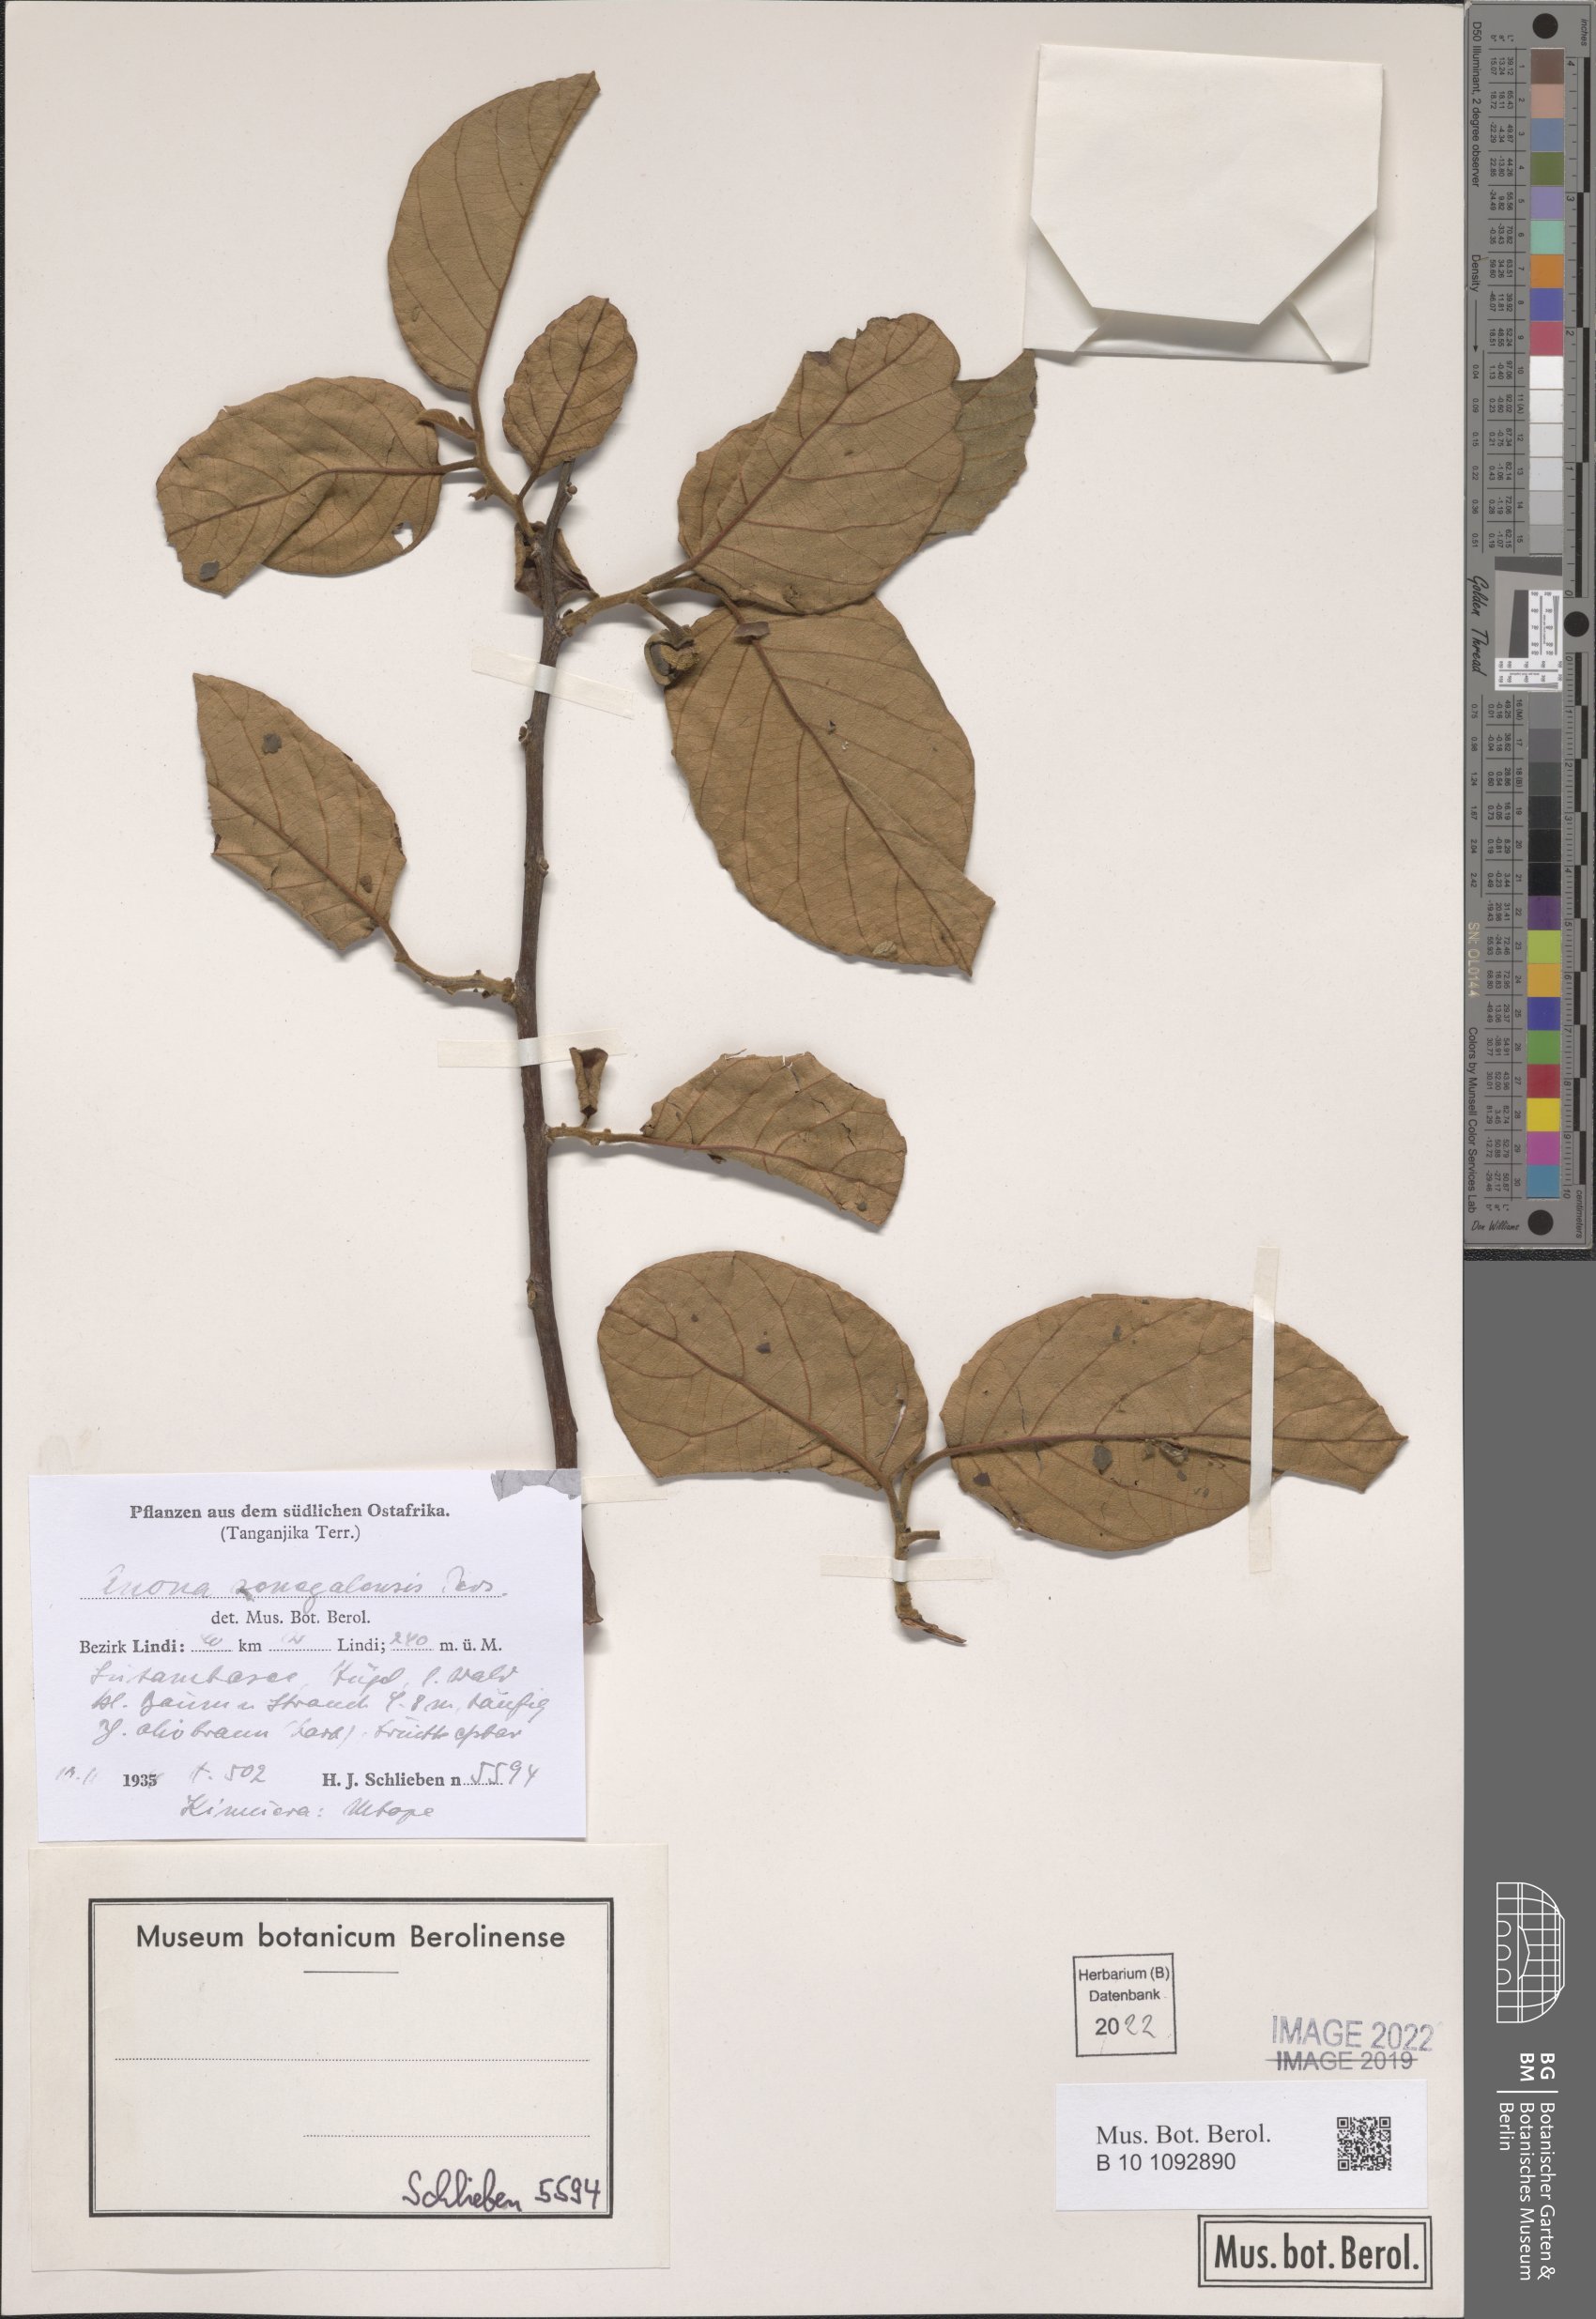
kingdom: Plantae
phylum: Tracheophyta
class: Magnoliopsida
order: Magnoliales
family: Annonaceae
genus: Annona
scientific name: Annona senegalensis
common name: Wild custard-apple
